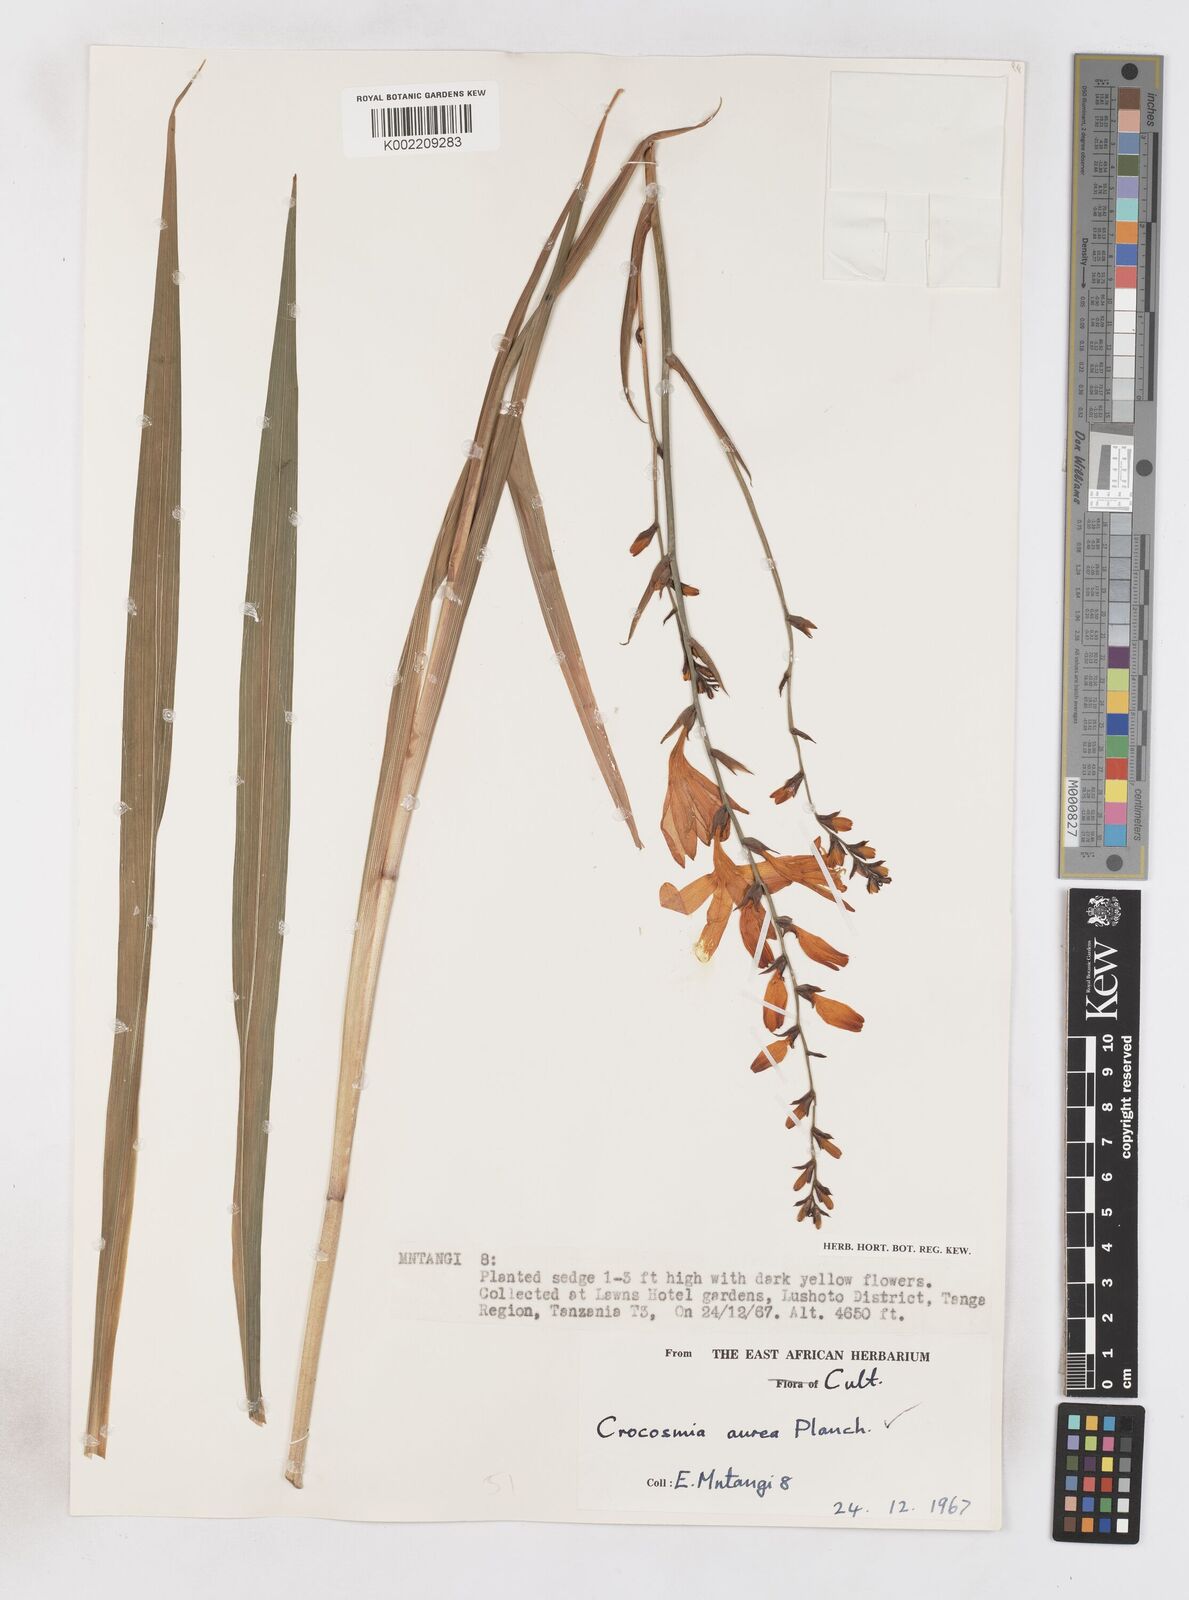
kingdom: Plantae
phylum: Tracheophyta
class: Liliopsida
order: Asparagales
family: Iridaceae
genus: Crocosmia
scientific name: Crocosmia aurea
